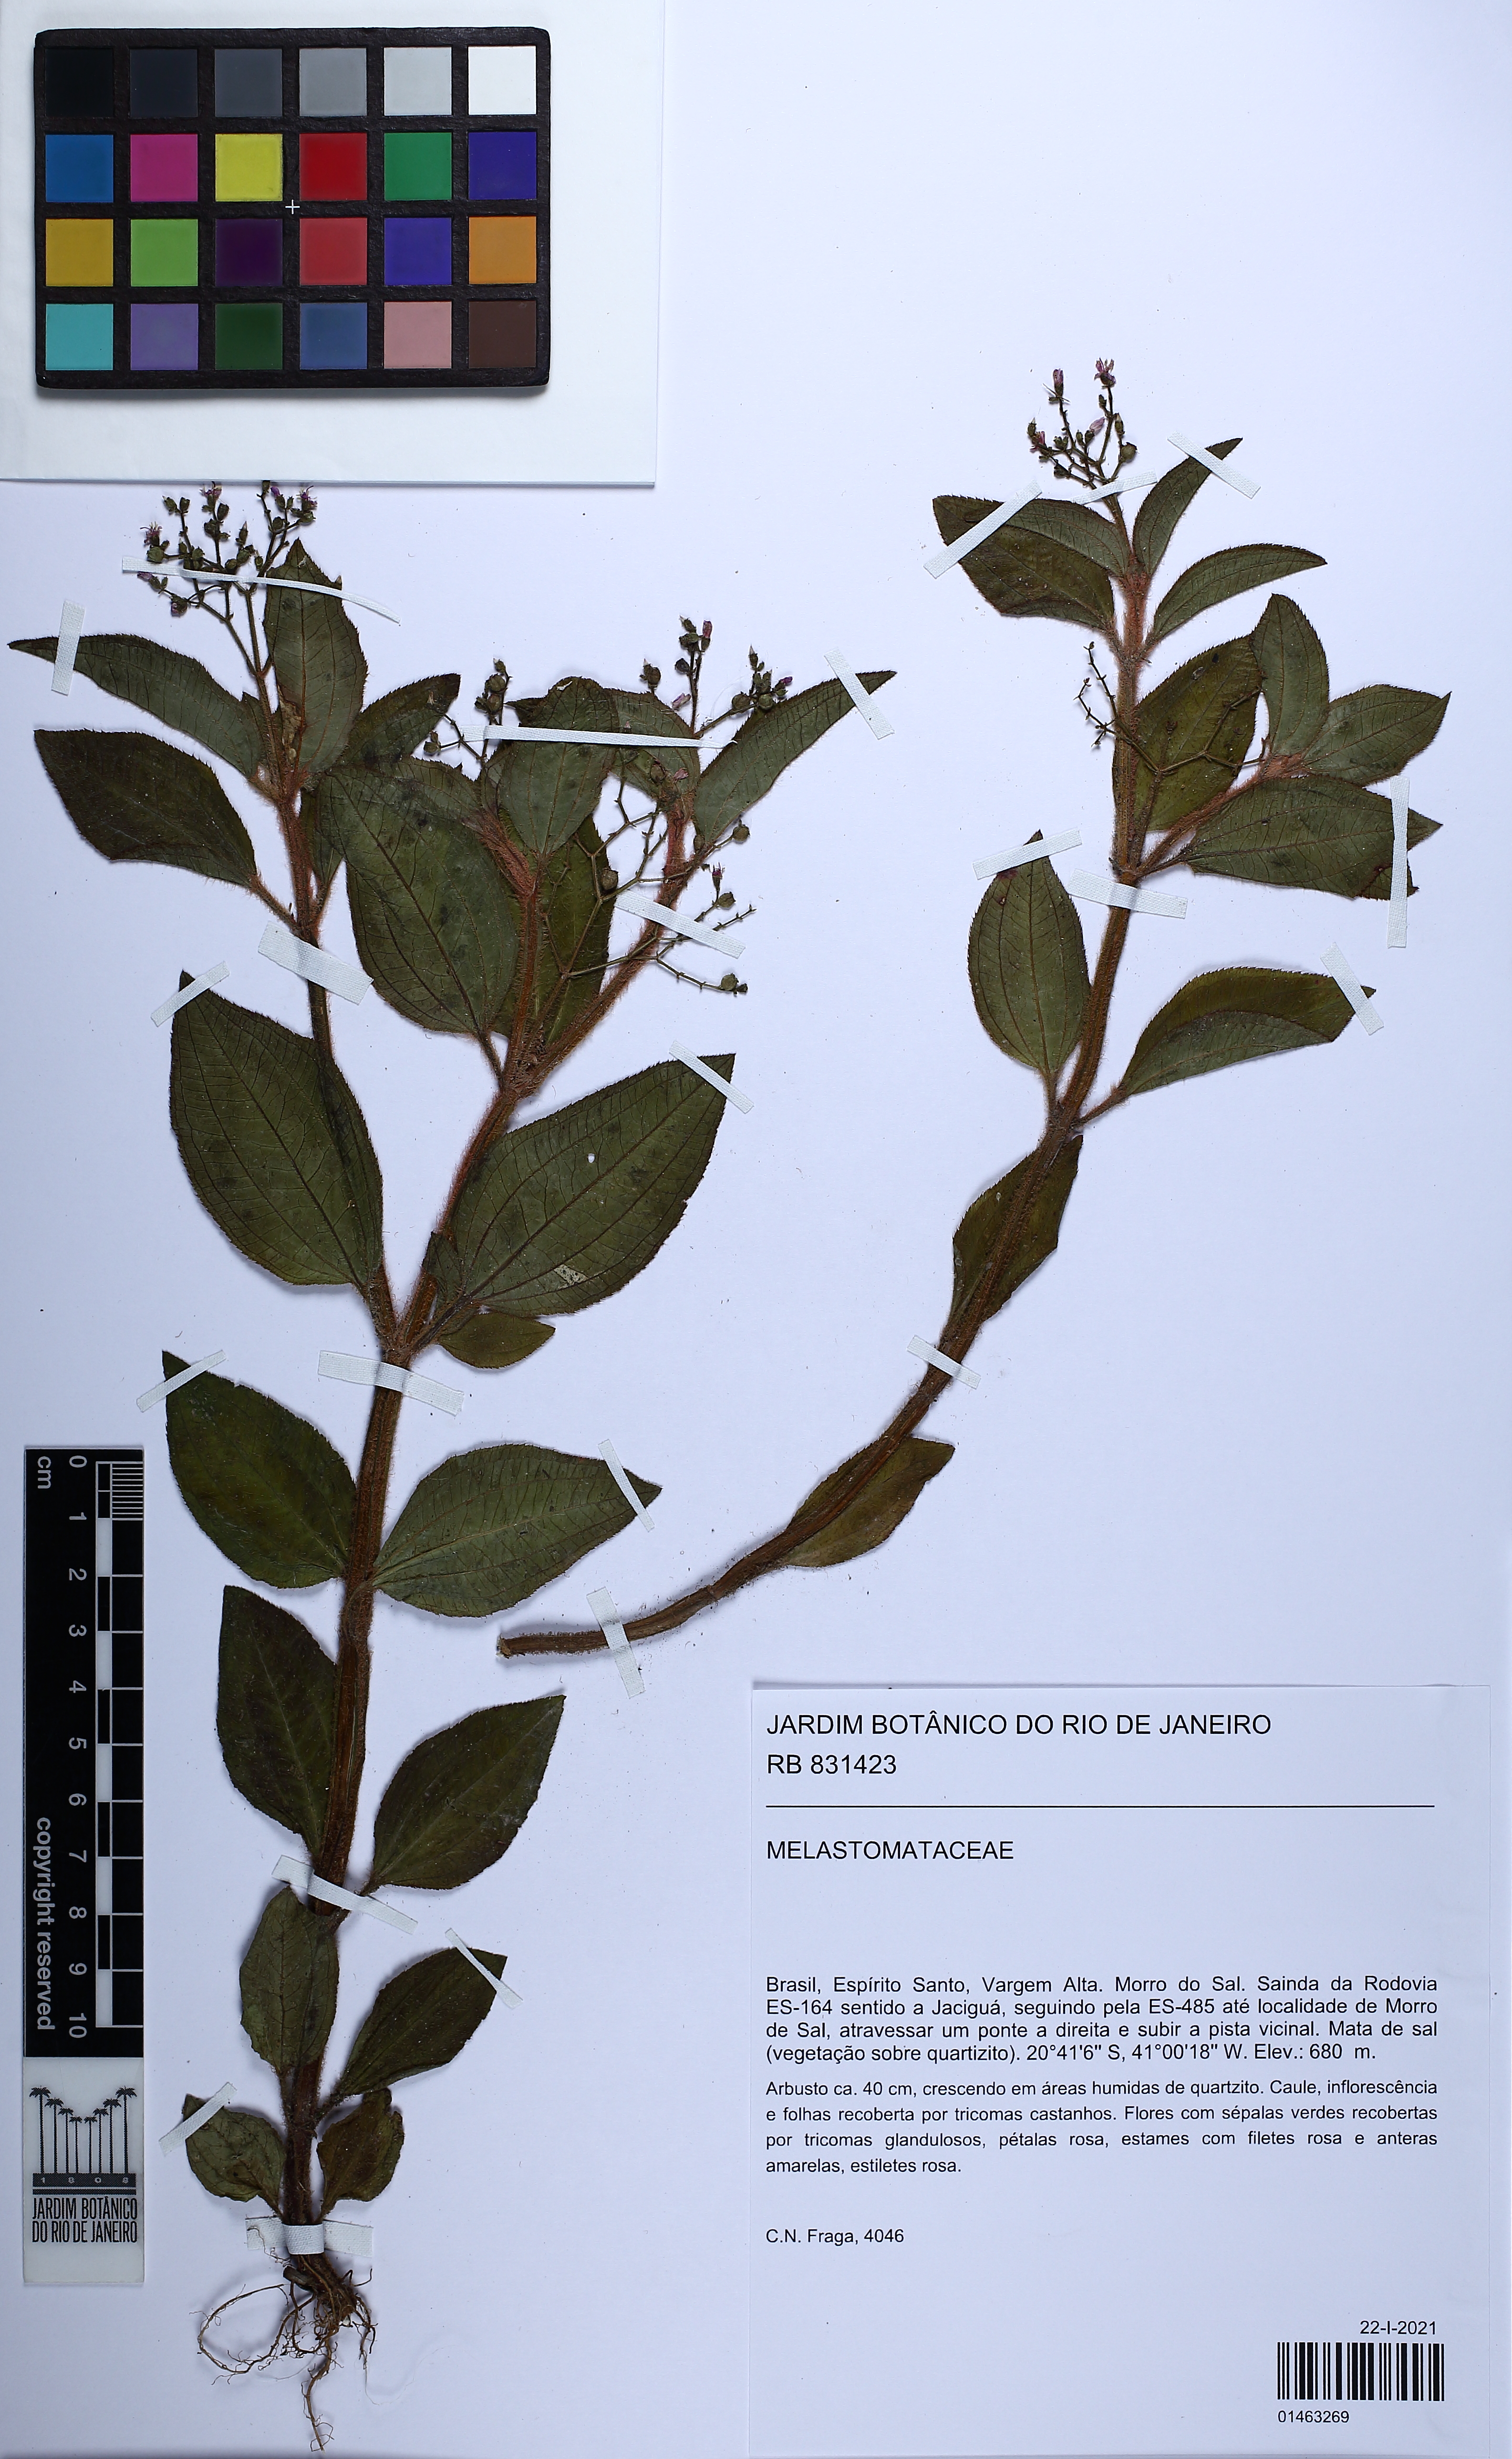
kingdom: Plantae
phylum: Tracheophyta
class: Magnoliopsida
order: Myrtales
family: Melastomataceae
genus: Aciotis
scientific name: Aciotis paludosa
